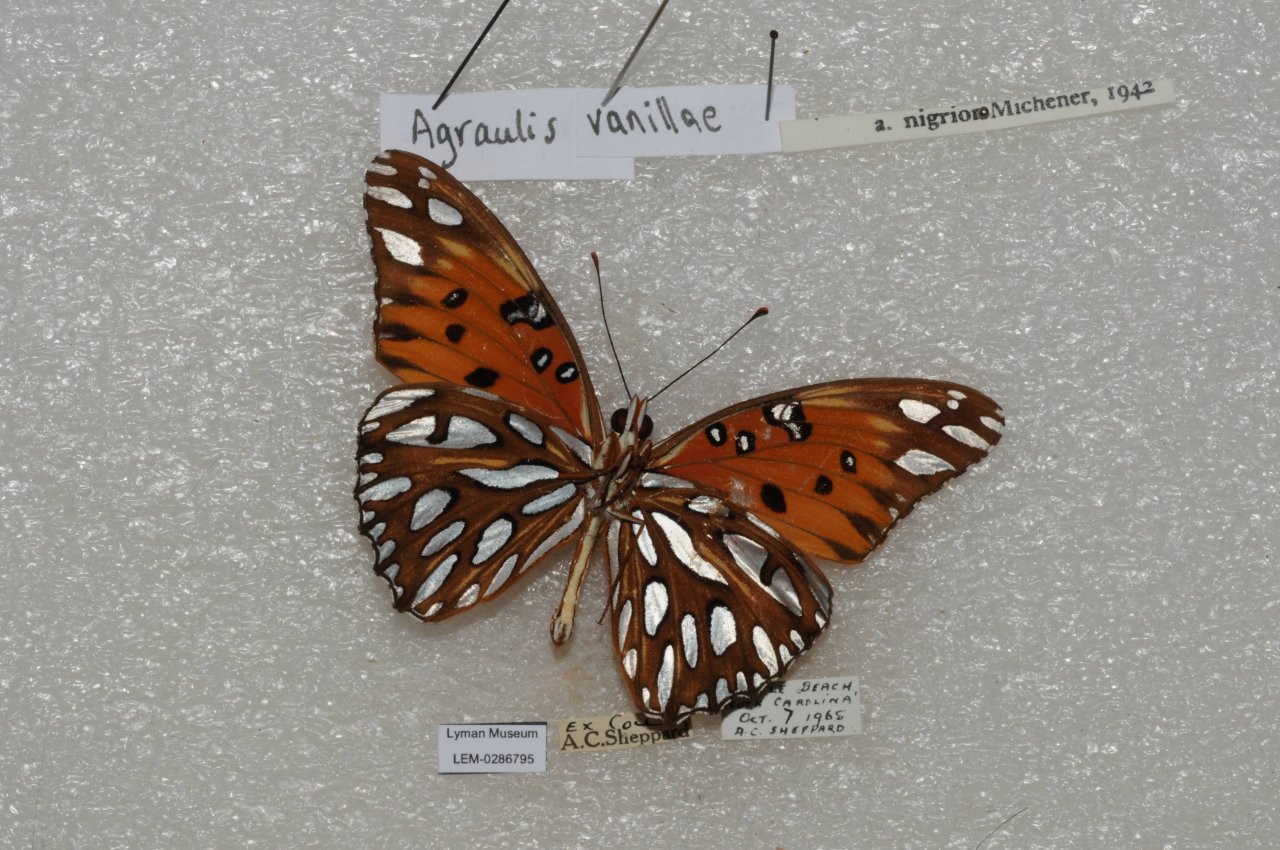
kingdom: Animalia
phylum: Arthropoda
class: Insecta
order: Lepidoptera
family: Nymphalidae
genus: Dione
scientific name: Dione vanillae
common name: Gulf Fritillary
